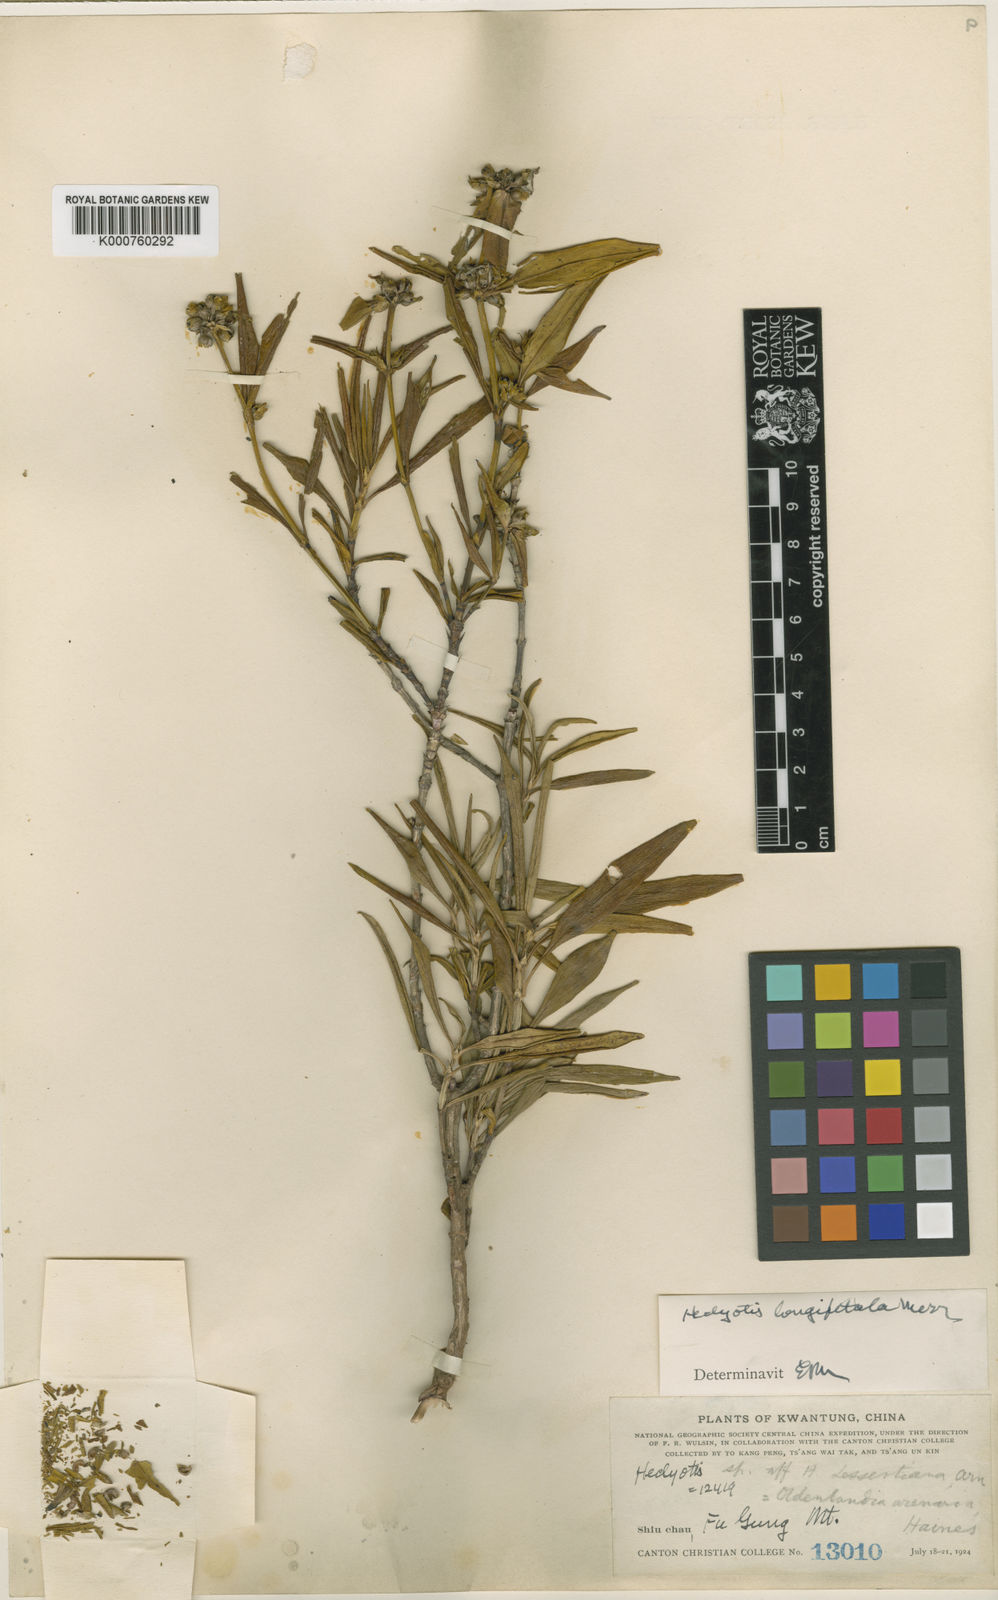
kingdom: Plantae
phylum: Tracheophyta
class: Magnoliopsida
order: Gentianales
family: Rubiaceae
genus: Hedyotis
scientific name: Hedyotis longipetala
